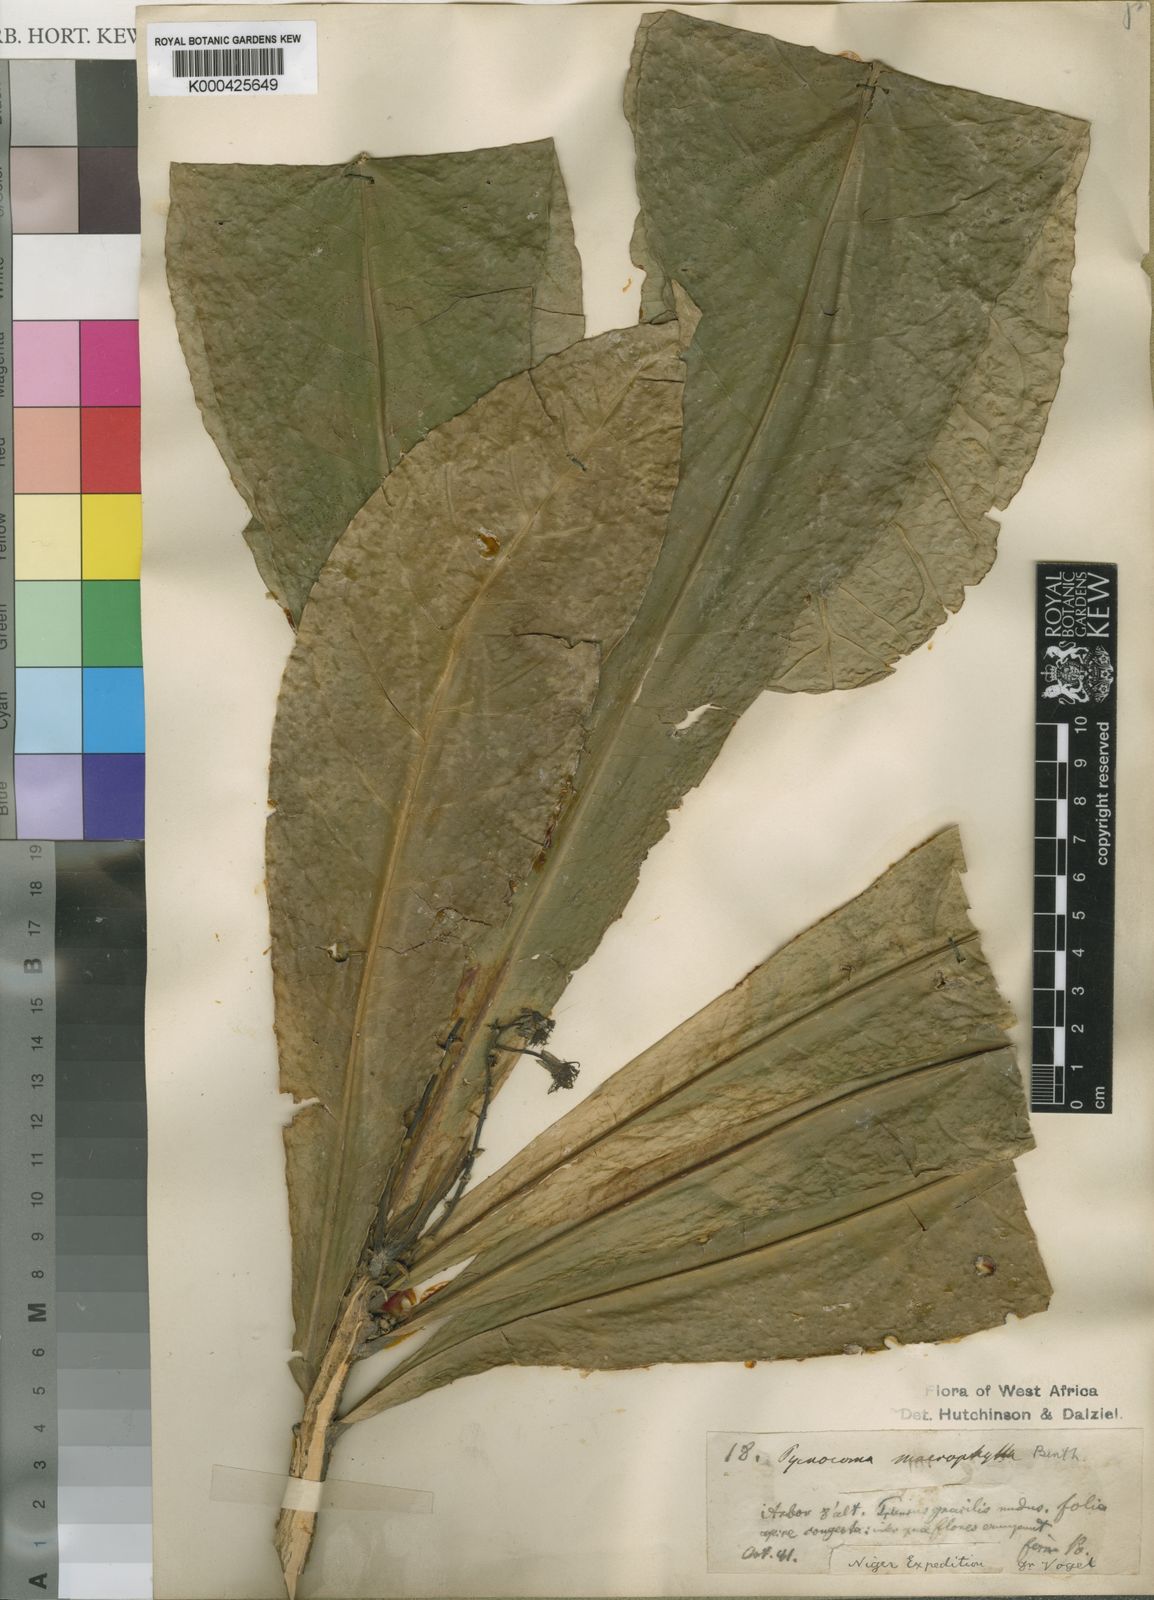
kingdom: Plantae
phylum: Tracheophyta
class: Magnoliopsida
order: Malpighiales
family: Euphorbiaceae
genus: Pycnocoma
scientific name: Pycnocoma macrophylla
